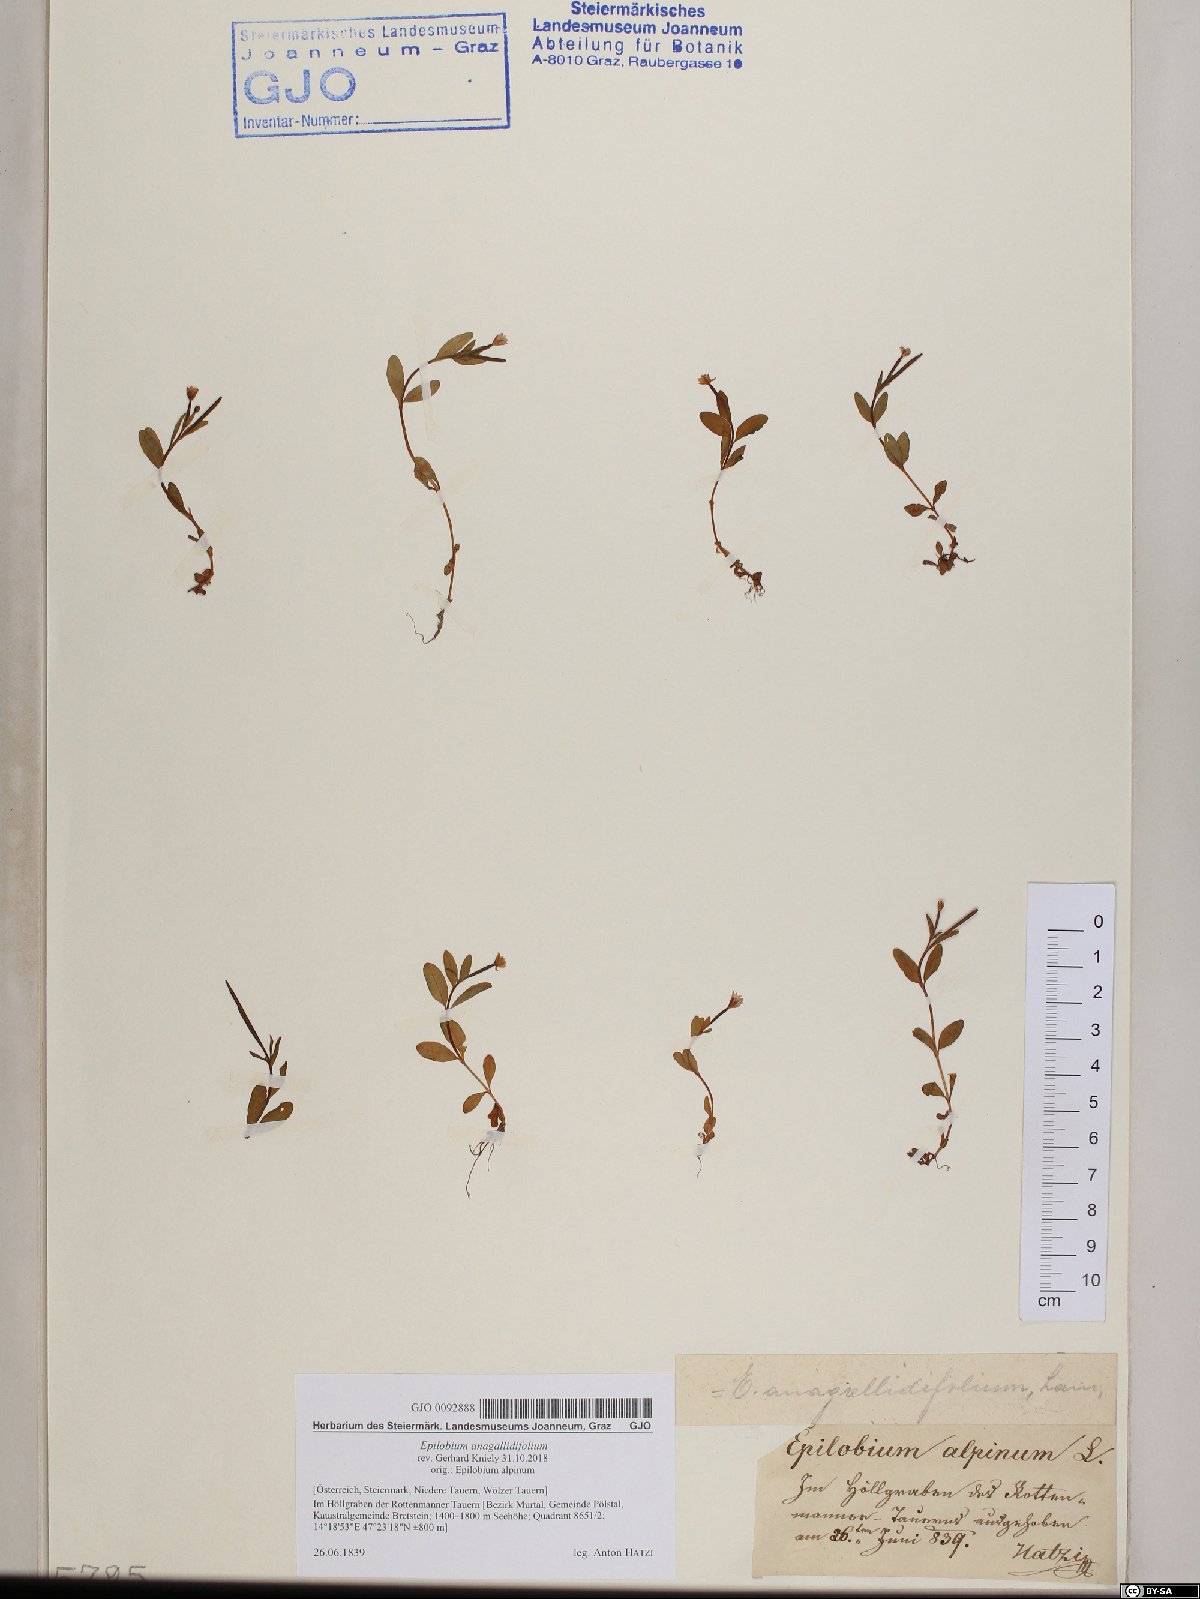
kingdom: Plantae
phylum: Tracheophyta
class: Magnoliopsida
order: Myrtales
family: Onagraceae
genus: Epilobium
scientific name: Epilobium anagallidifolium
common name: Alpine willowherb
